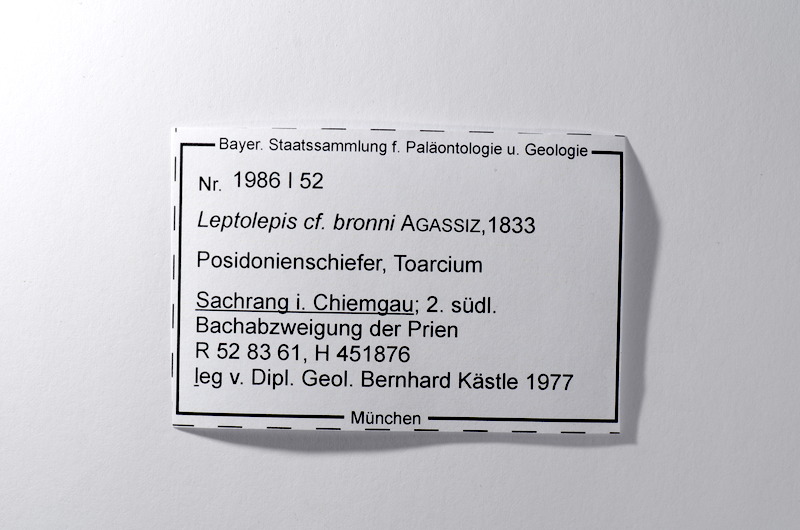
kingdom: Animalia
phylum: Chordata
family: Leptolepididae
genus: Leptolepis
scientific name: Leptolepis coryphaenoides
